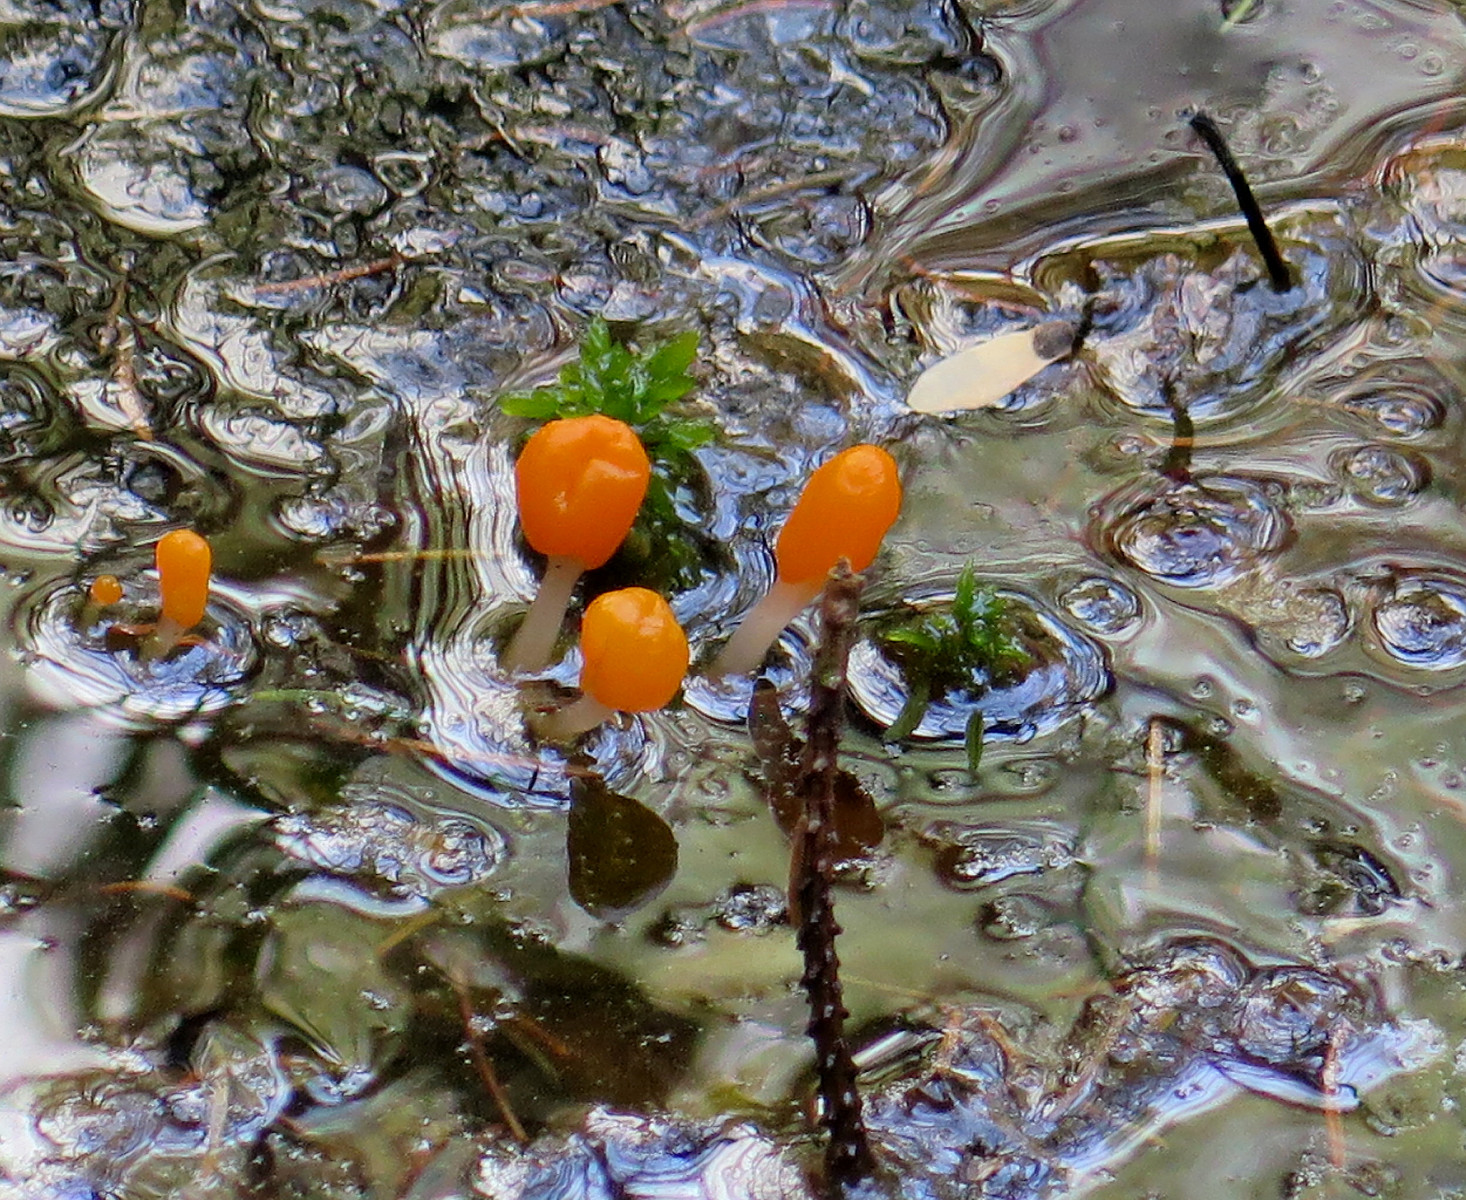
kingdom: Fungi
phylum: Ascomycota
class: Leotiomycetes
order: Helotiales
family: Cenangiaceae
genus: Mitrula
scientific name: Mitrula paludosa
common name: gul nøkketunge
